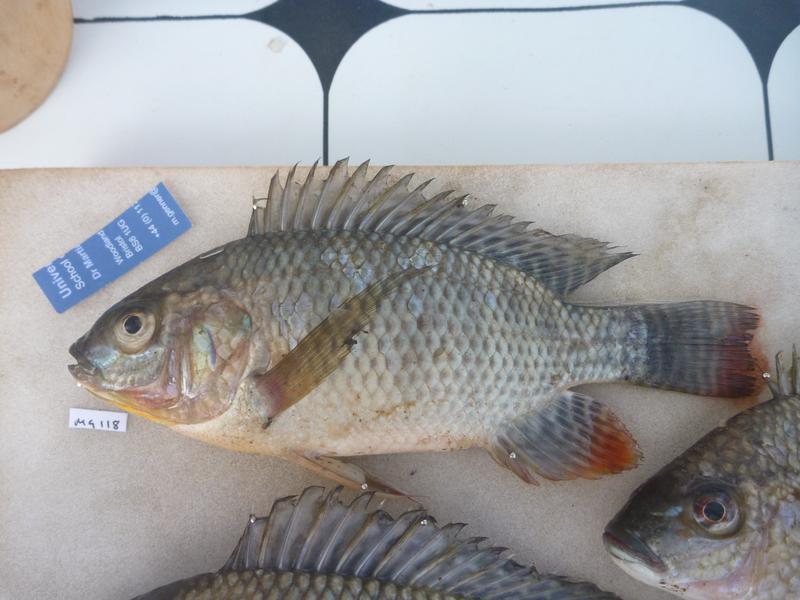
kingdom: Animalia
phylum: Chordata
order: Perciformes
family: Cichlidae
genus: Oreochromis
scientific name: Oreochromis niloticus
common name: Nile tilapia
